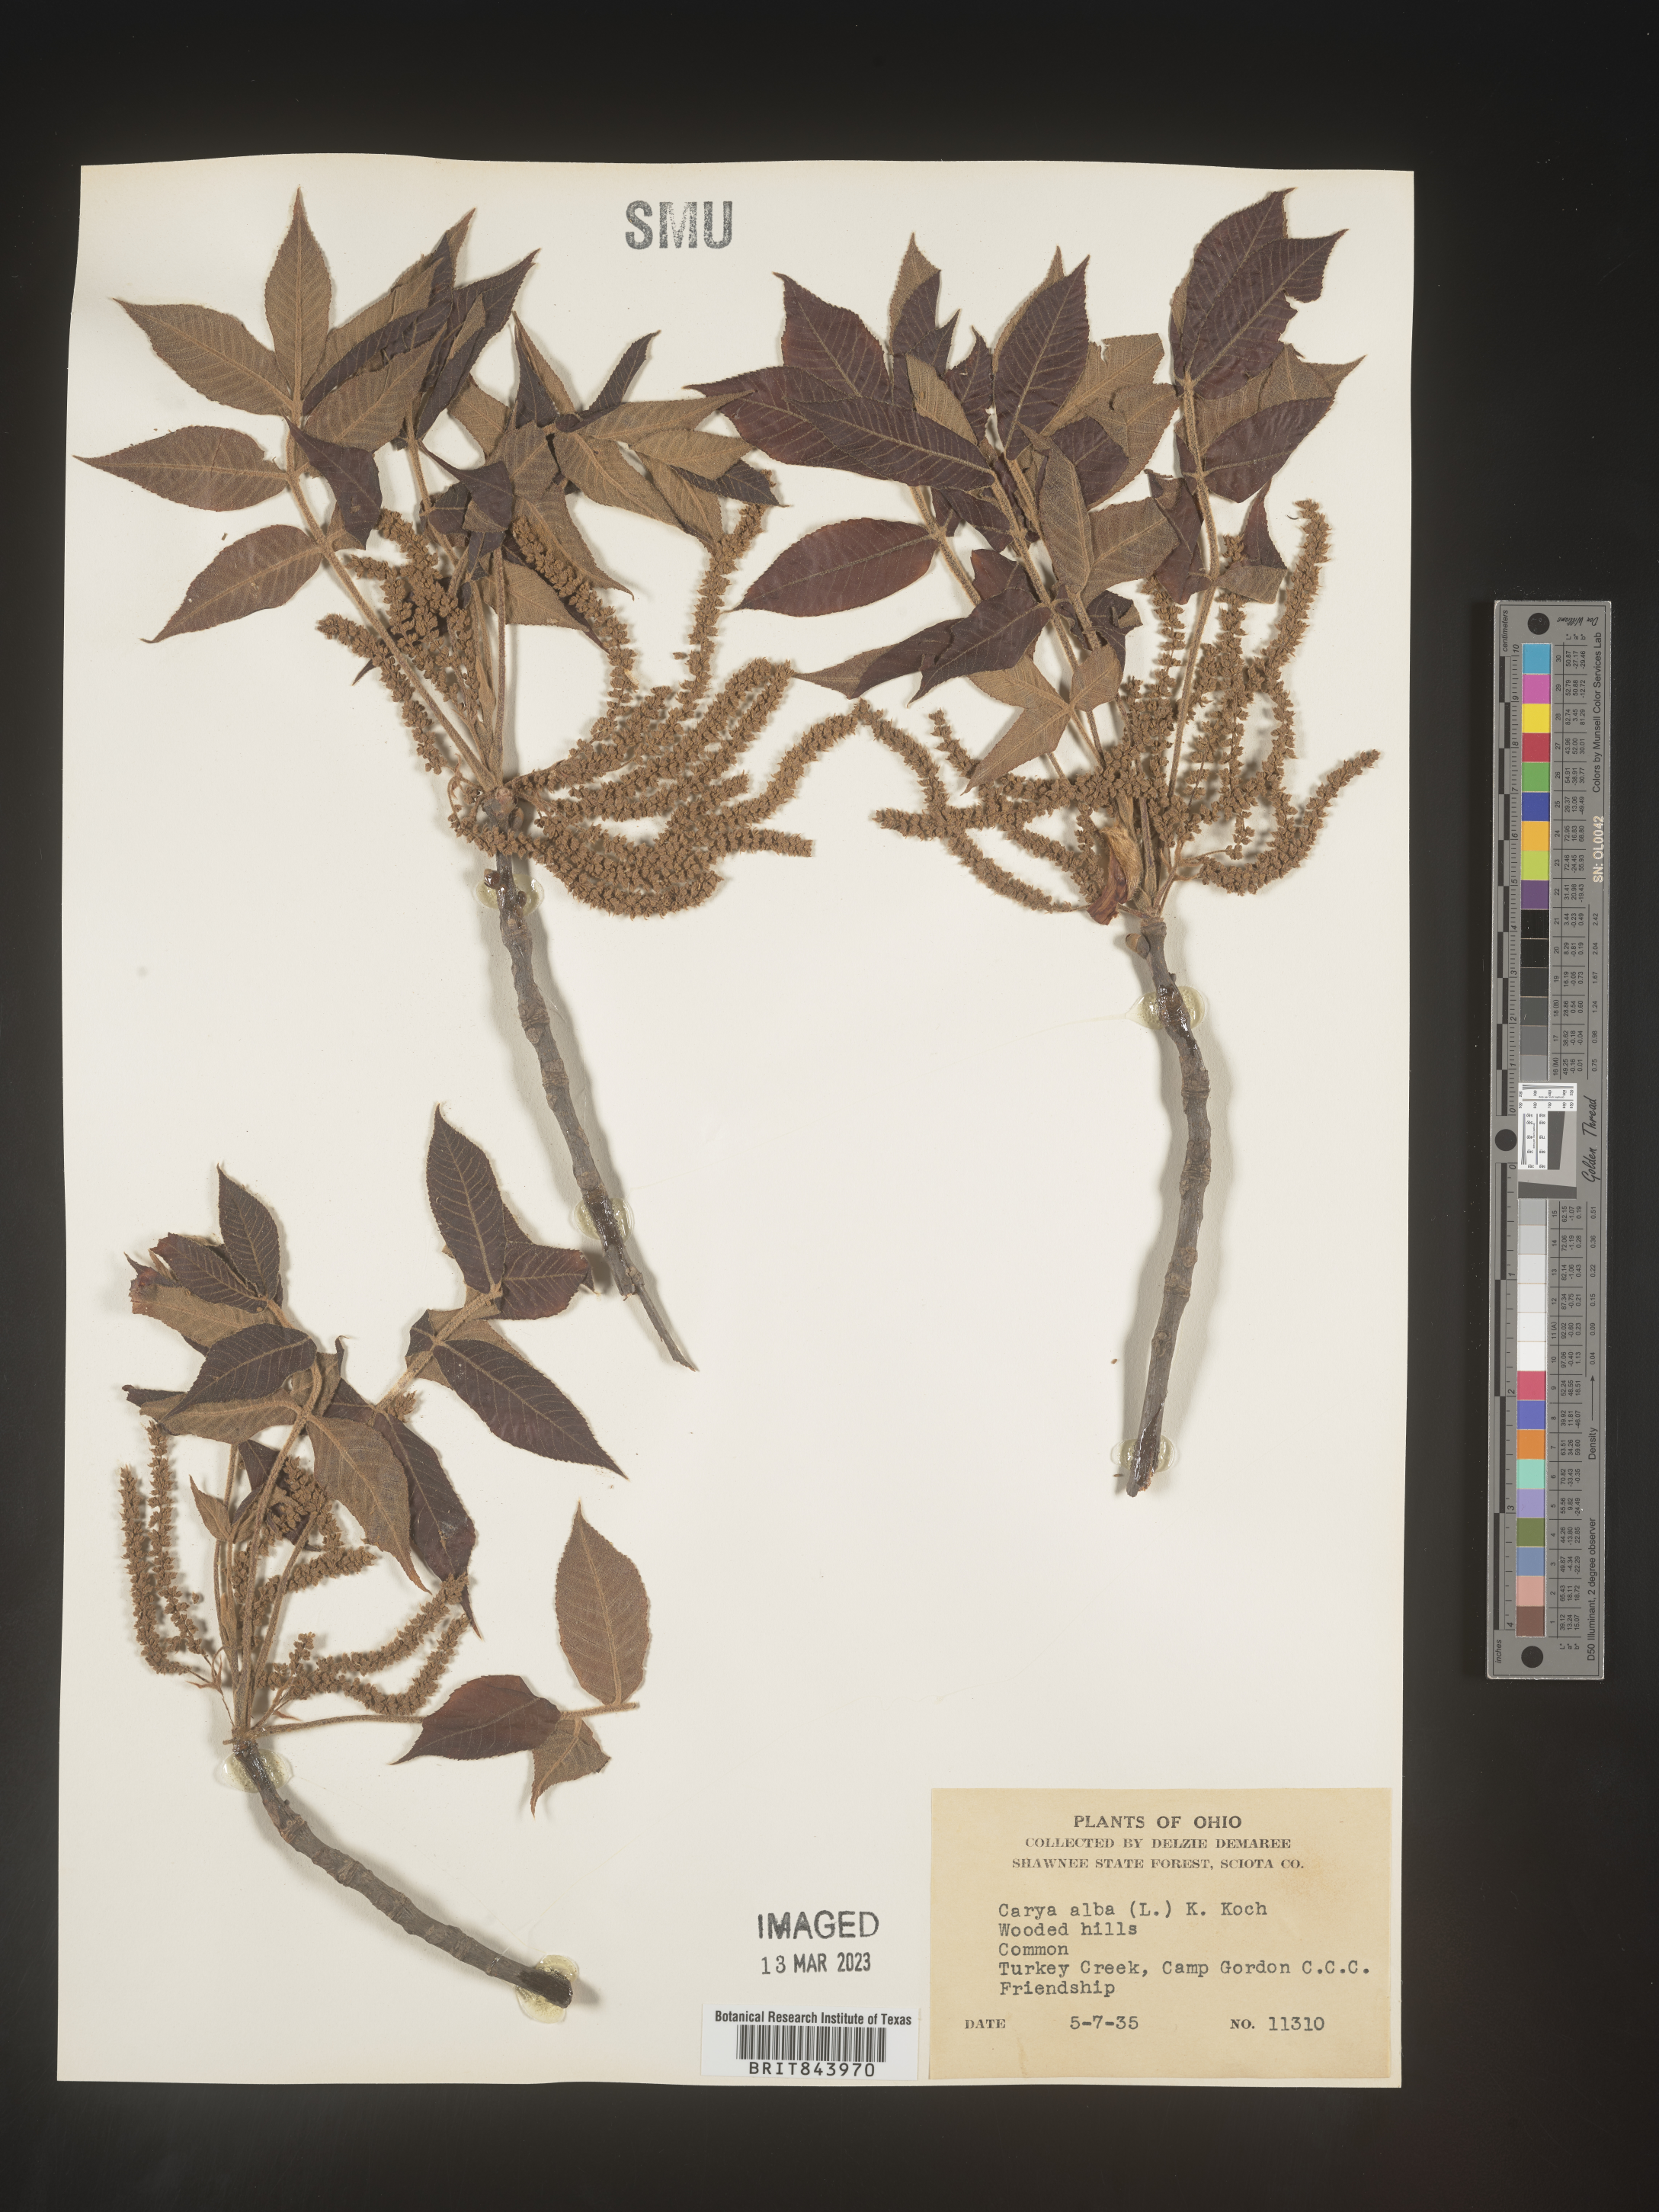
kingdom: Plantae
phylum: Tracheophyta
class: Magnoliopsida
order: Fagales
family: Juglandaceae
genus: Carya
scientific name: Carya alba
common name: Mockernut hickory
